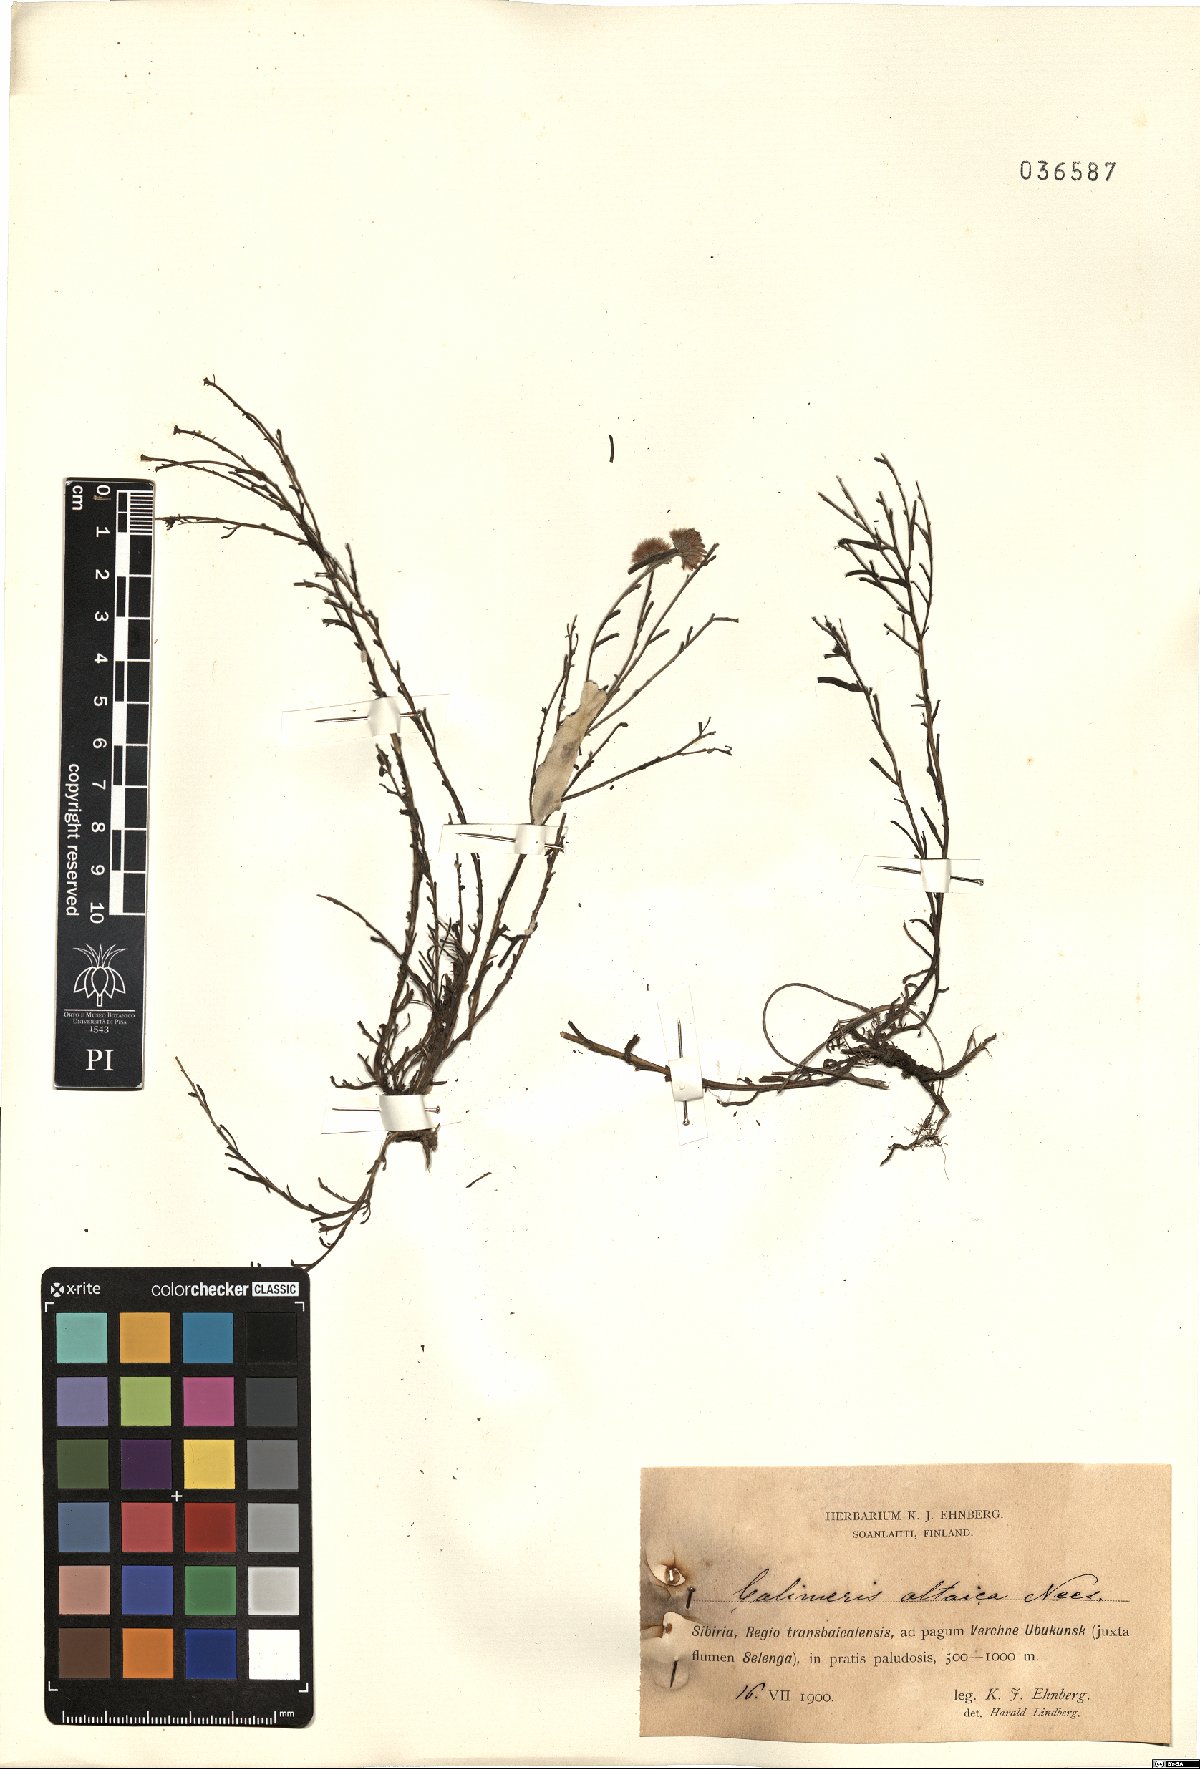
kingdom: Plantae
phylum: Tracheophyta
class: Magnoliopsida
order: Asterales
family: Asteraceae
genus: Heteropappus
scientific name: Heteropappus altaicus
